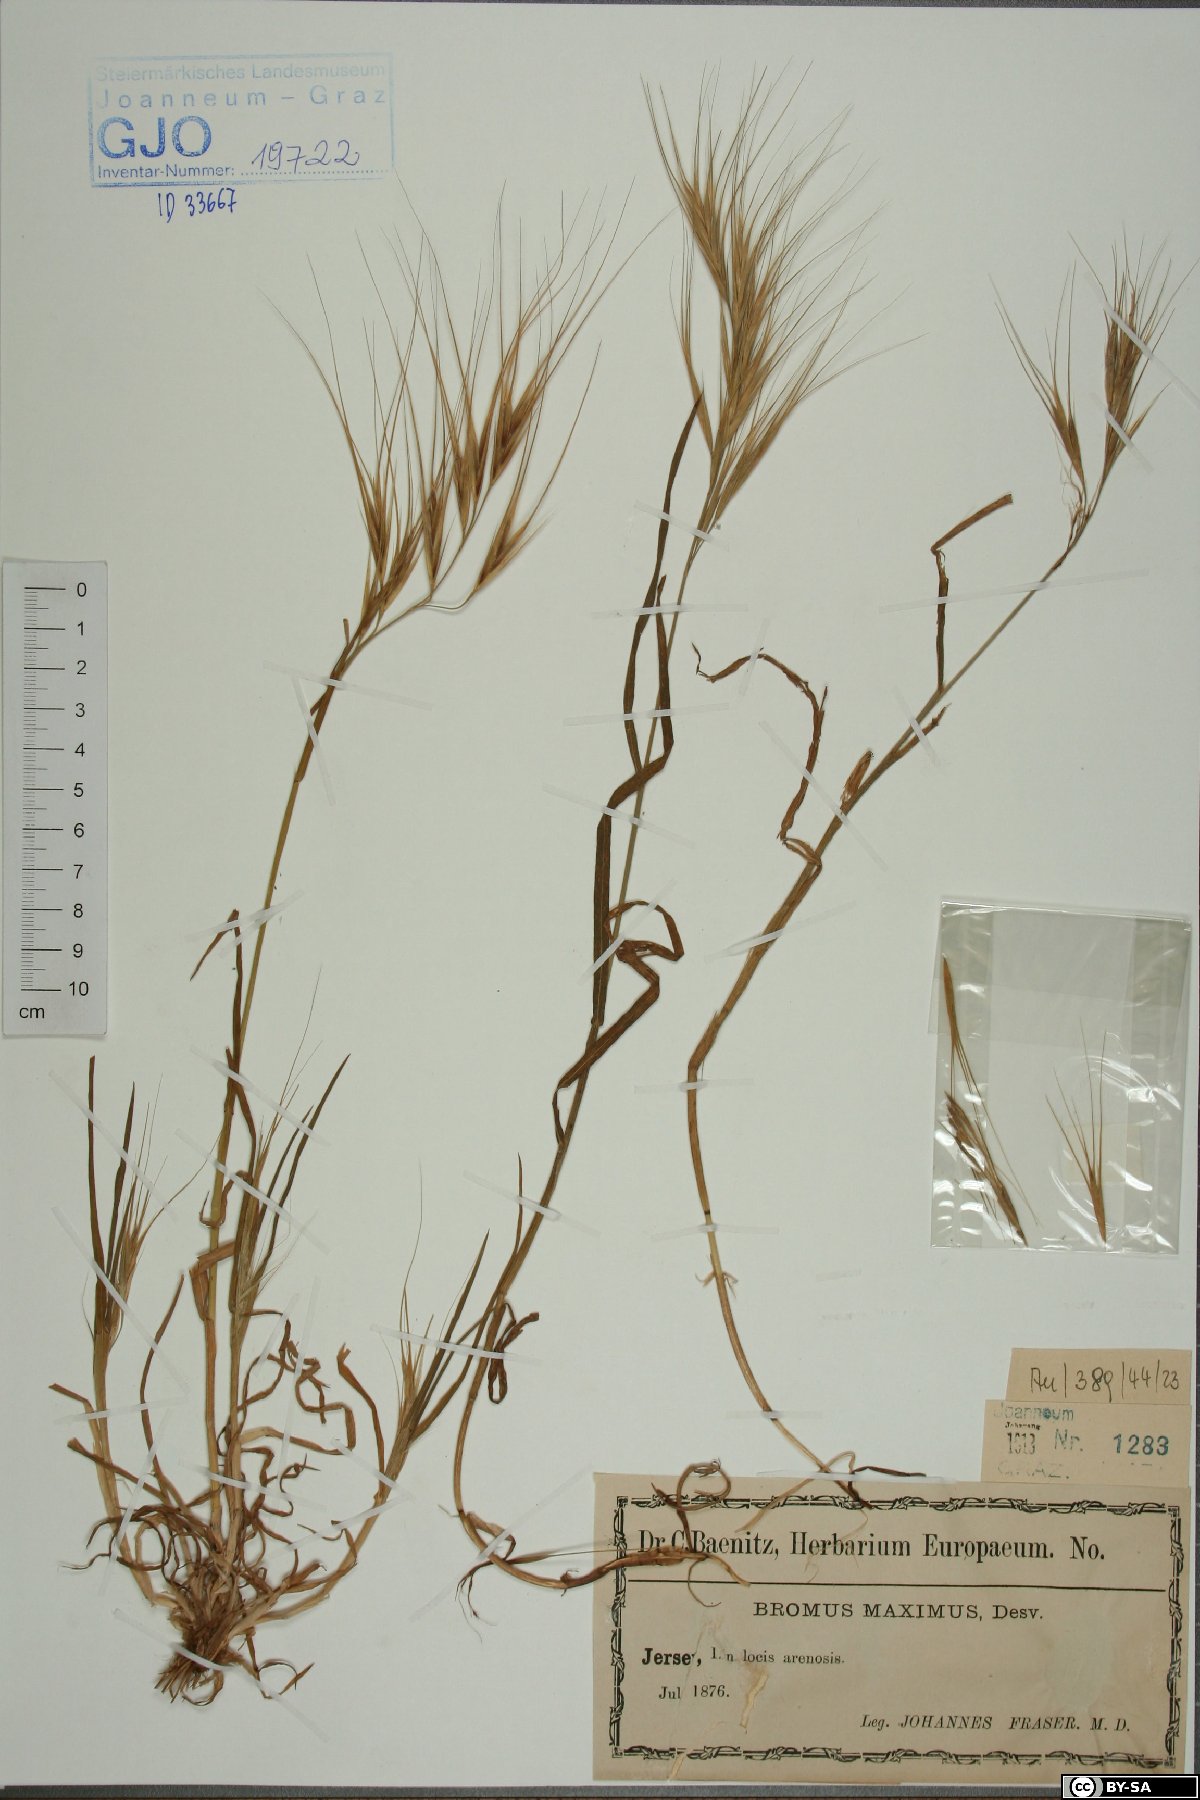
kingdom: Plantae
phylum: Tracheophyta
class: Liliopsida
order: Poales
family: Poaceae
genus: Bromus
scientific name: Bromus rigidus
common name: Ripgut brome
